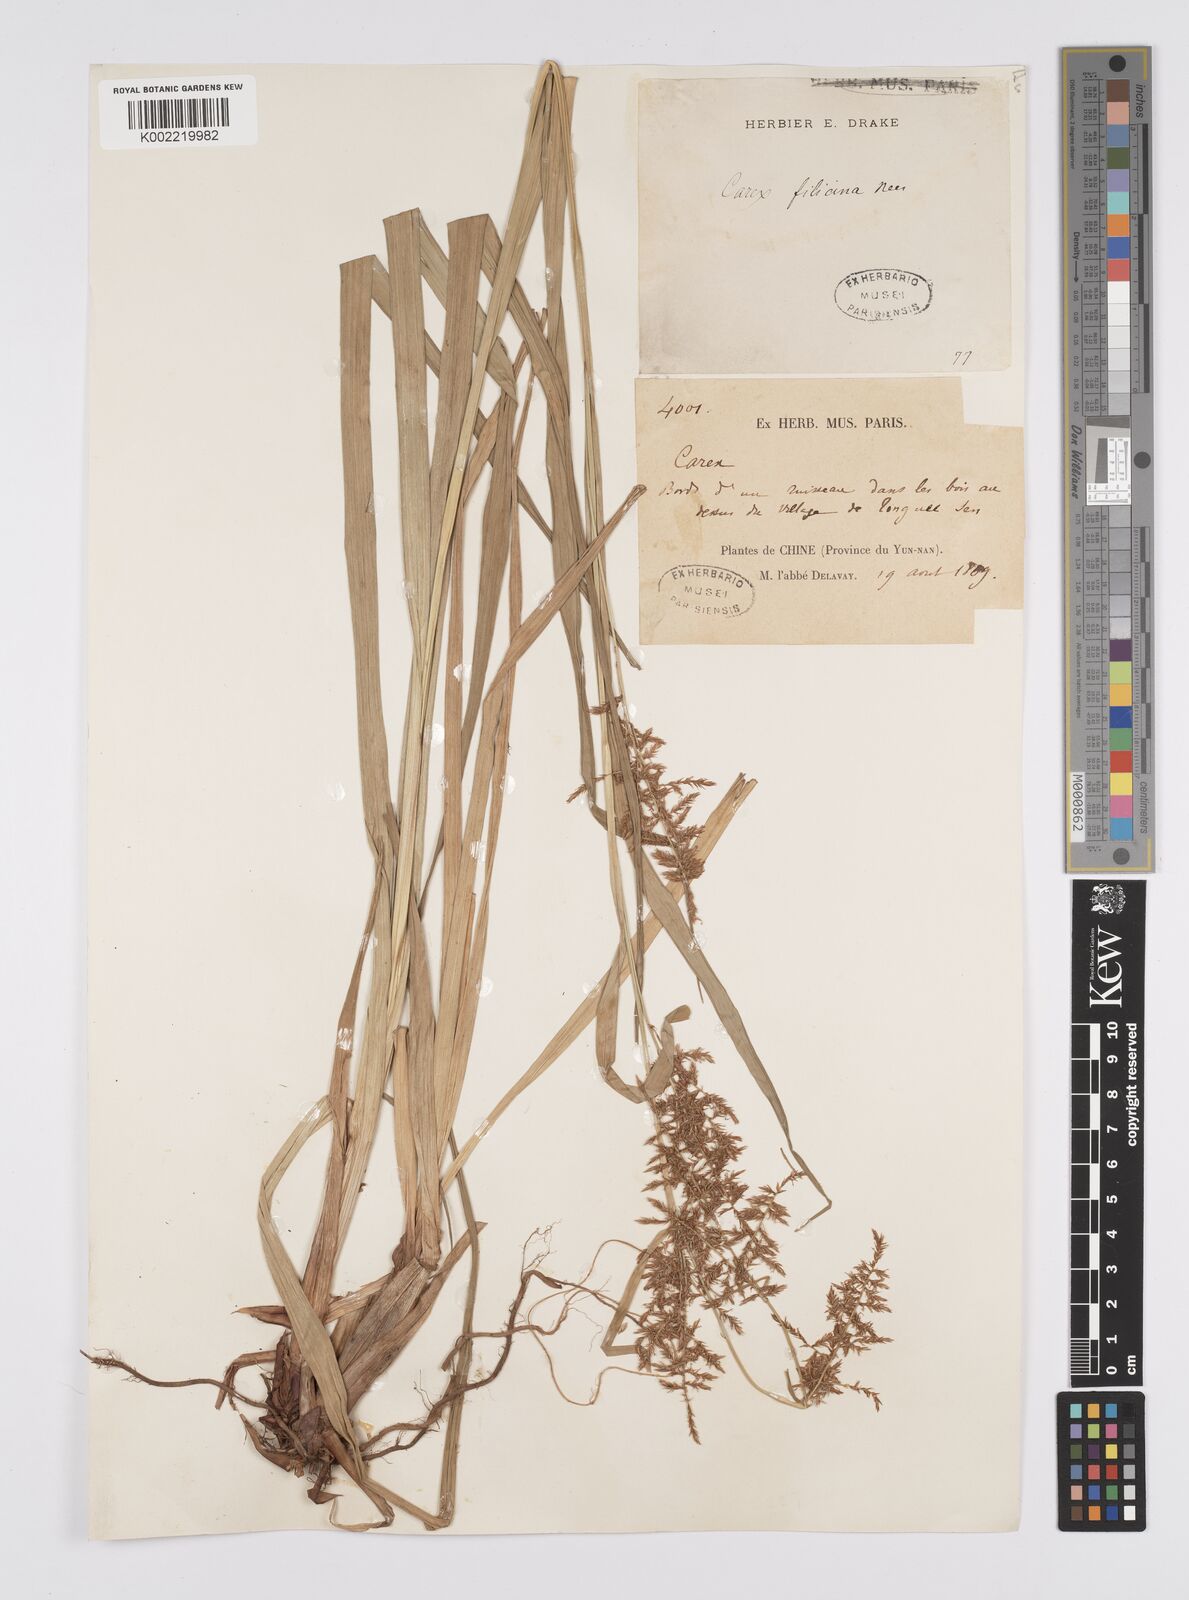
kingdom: Plantae
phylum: Tracheophyta
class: Liliopsida
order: Poales
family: Cyperaceae
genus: Carex
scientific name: Carex filicina
